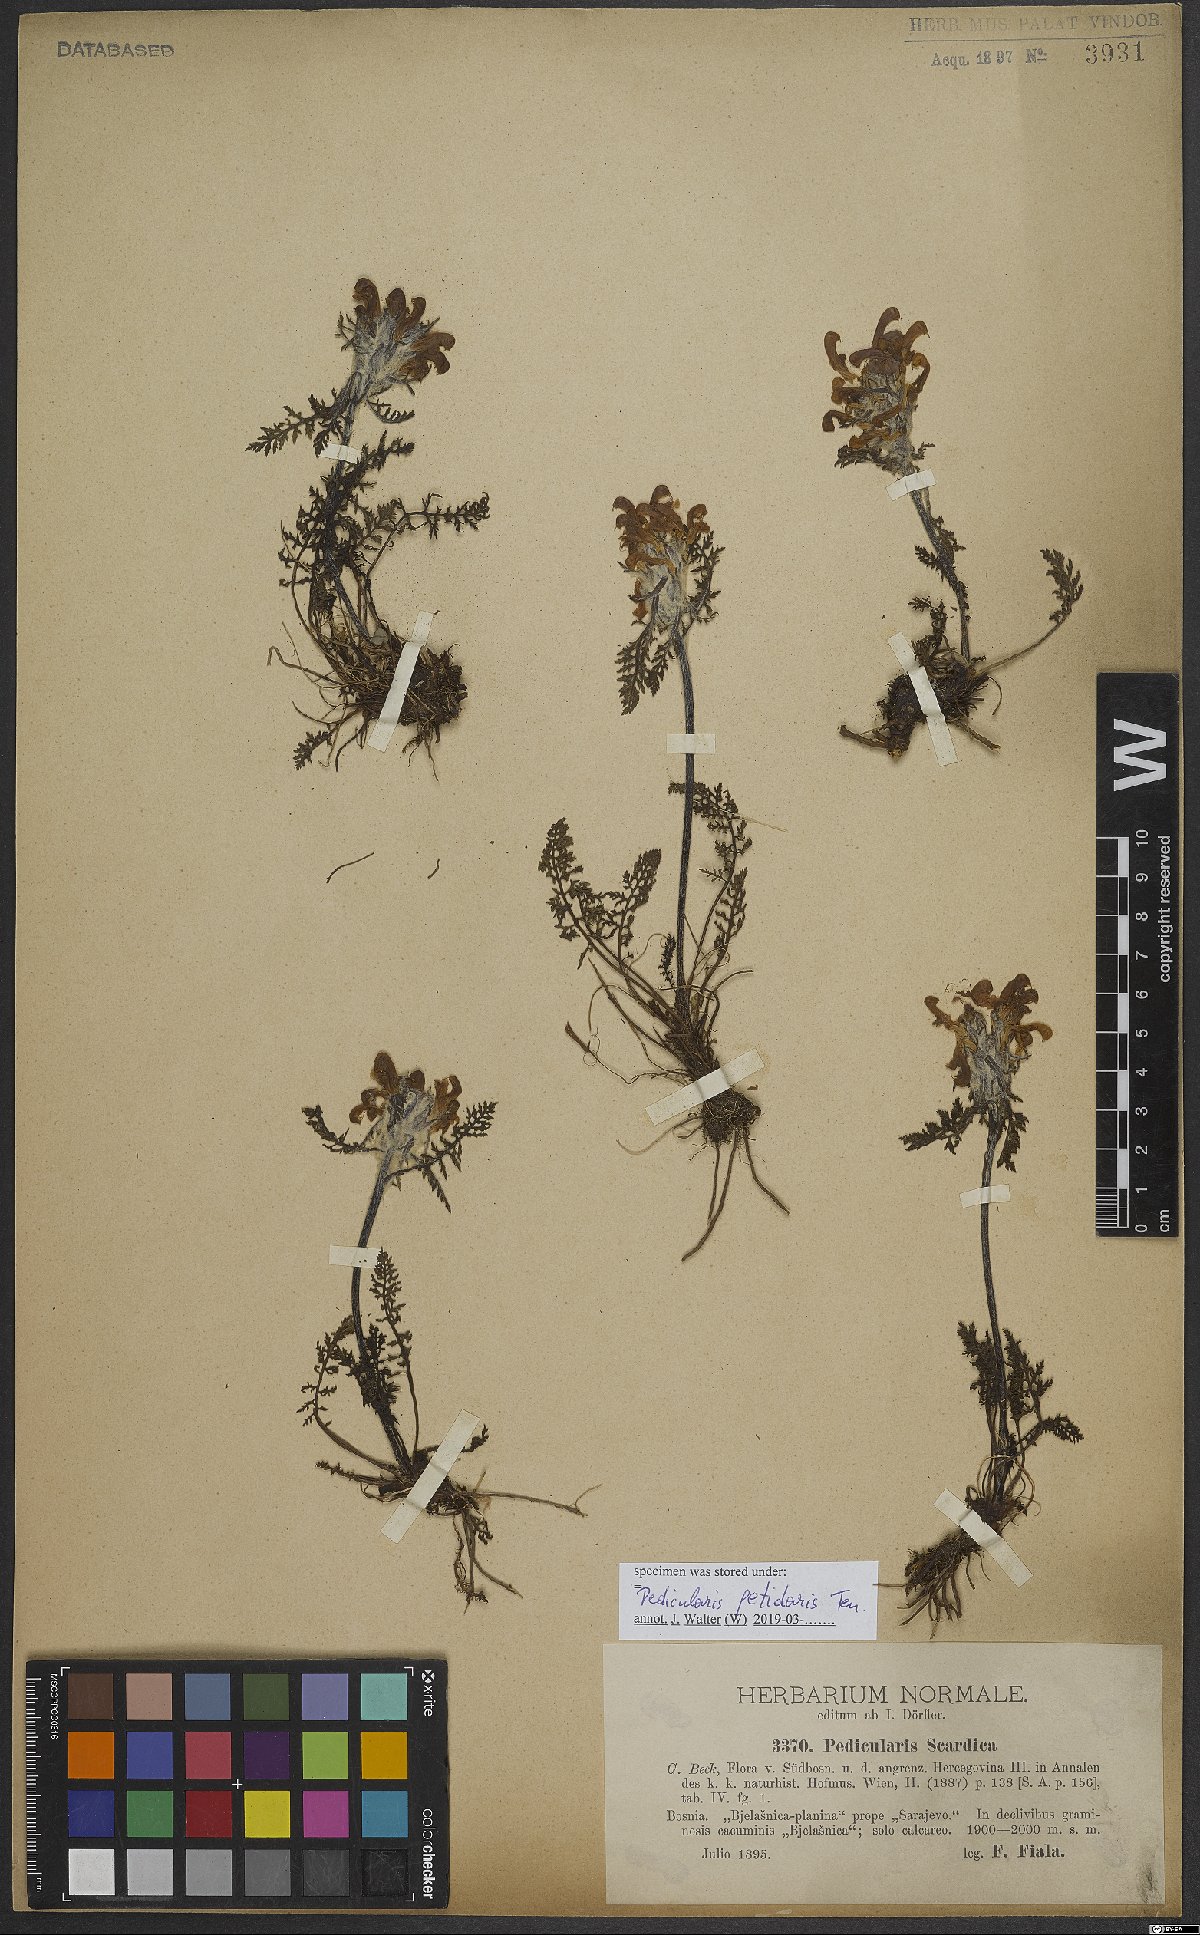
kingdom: Plantae
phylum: Tracheophyta
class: Magnoliopsida
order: Lamiales
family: Orobanchaceae
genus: Pedicularis
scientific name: Pedicularis petiolaris
